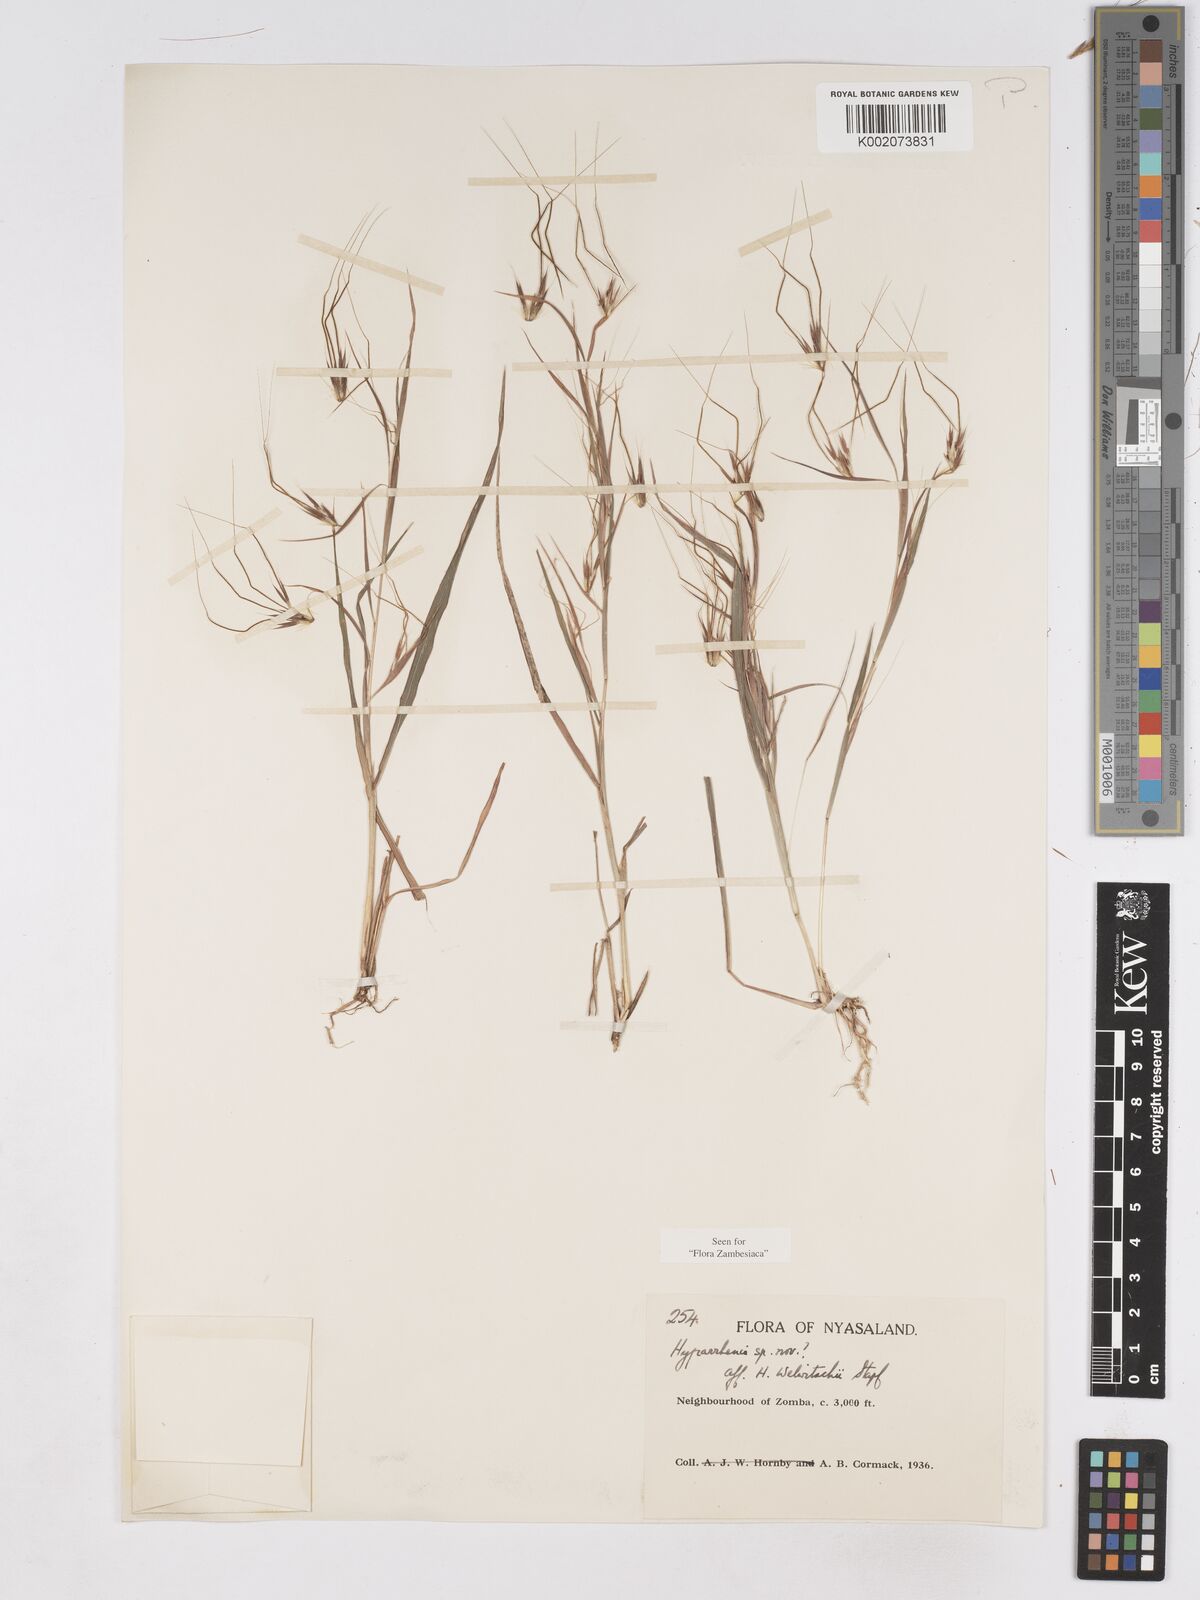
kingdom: Plantae
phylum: Tracheophyta
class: Liliopsida
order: Poales
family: Poaceae
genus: Hyparrhenia
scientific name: Hyparrhenia welwitschii
